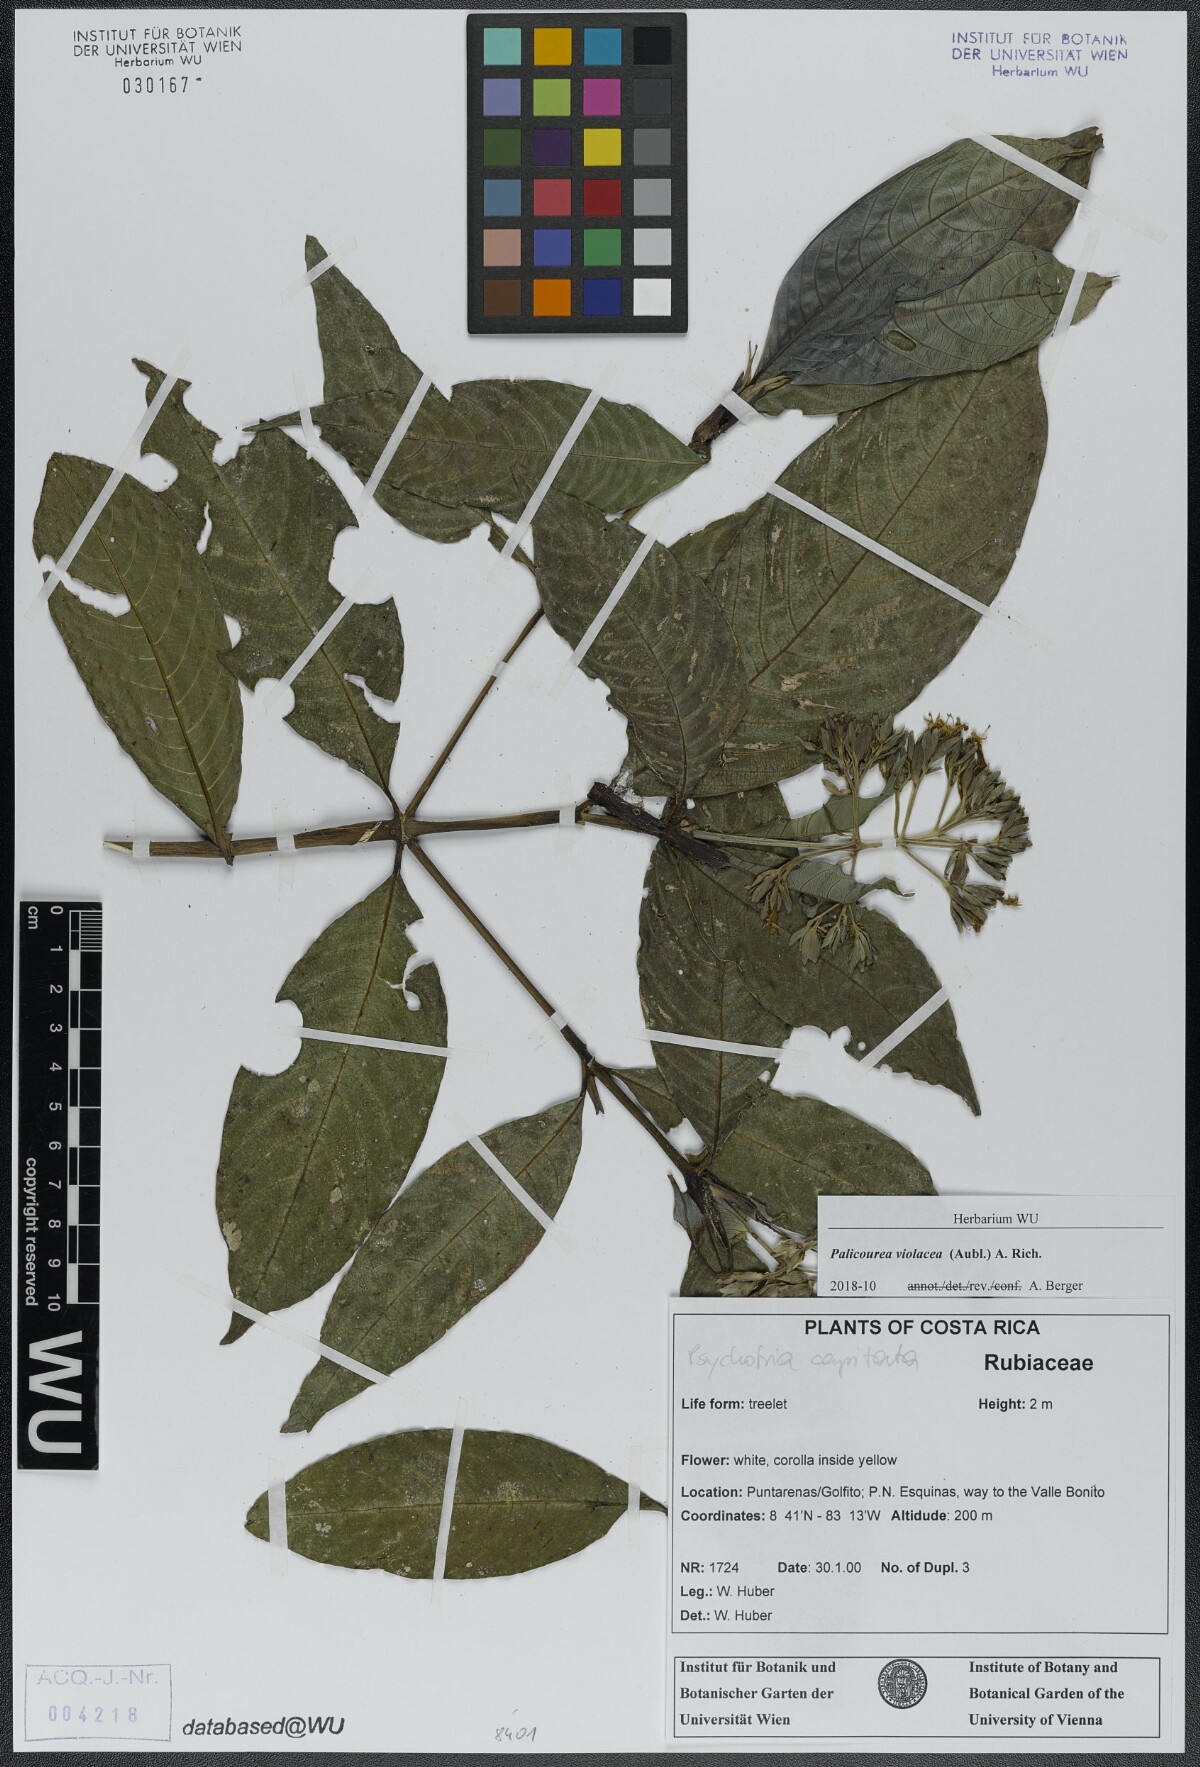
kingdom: Plantae
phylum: Tracheophyta
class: Magnoliopsida
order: Gentianales
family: Rubiaceae
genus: Palicourea
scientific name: Palicourea violacea
